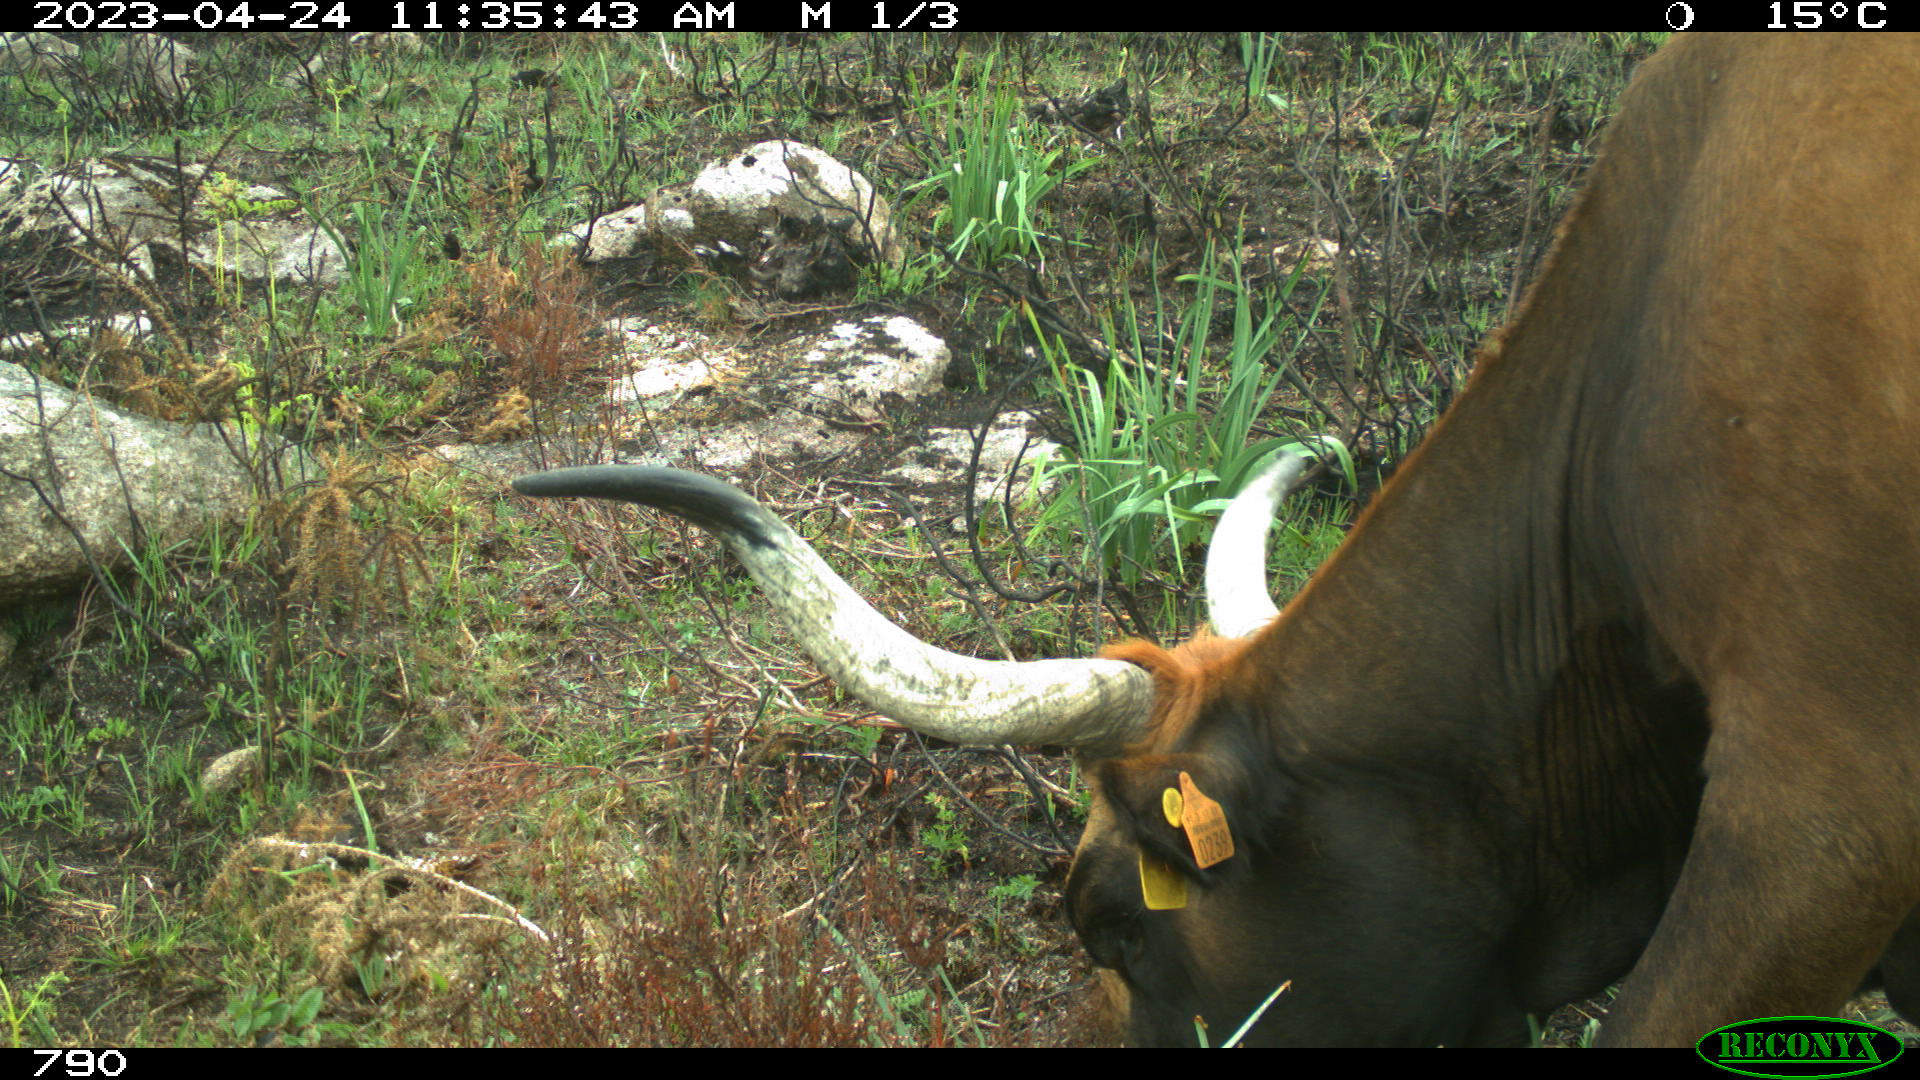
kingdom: Animalia
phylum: Chordata
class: Mammalia
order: Artiodactyla
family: Bovidae
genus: Bos
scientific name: Bos taurus
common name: Domesticated cattle
